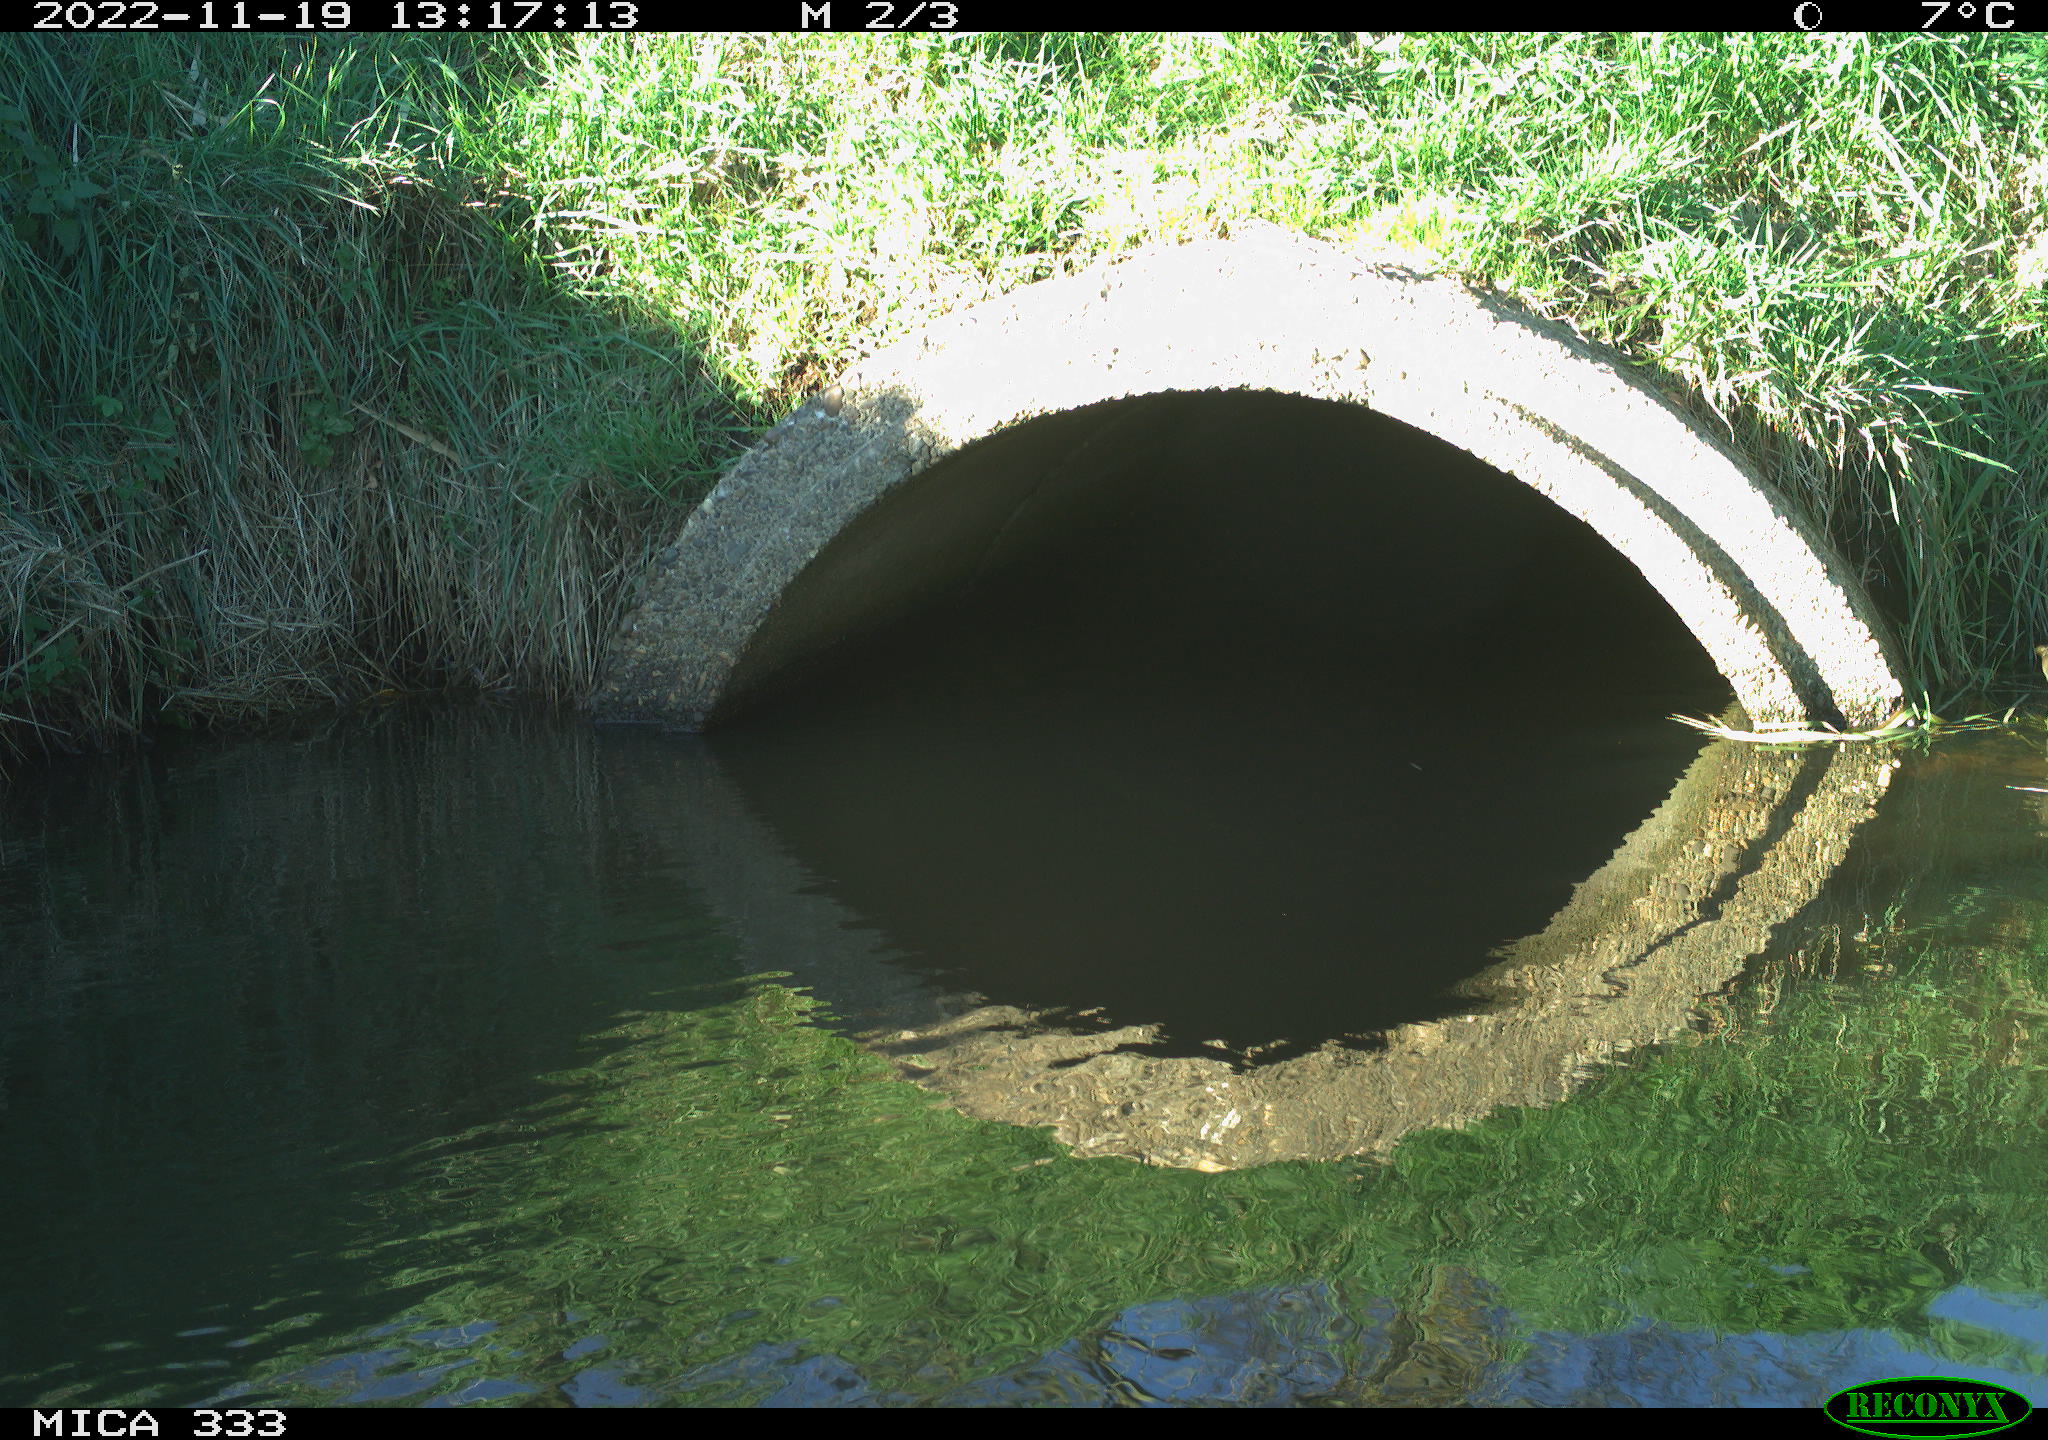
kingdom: Animalia
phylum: Chordata
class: Aves
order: Anseriformes
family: Anatidae
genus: Anas
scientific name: Anas
